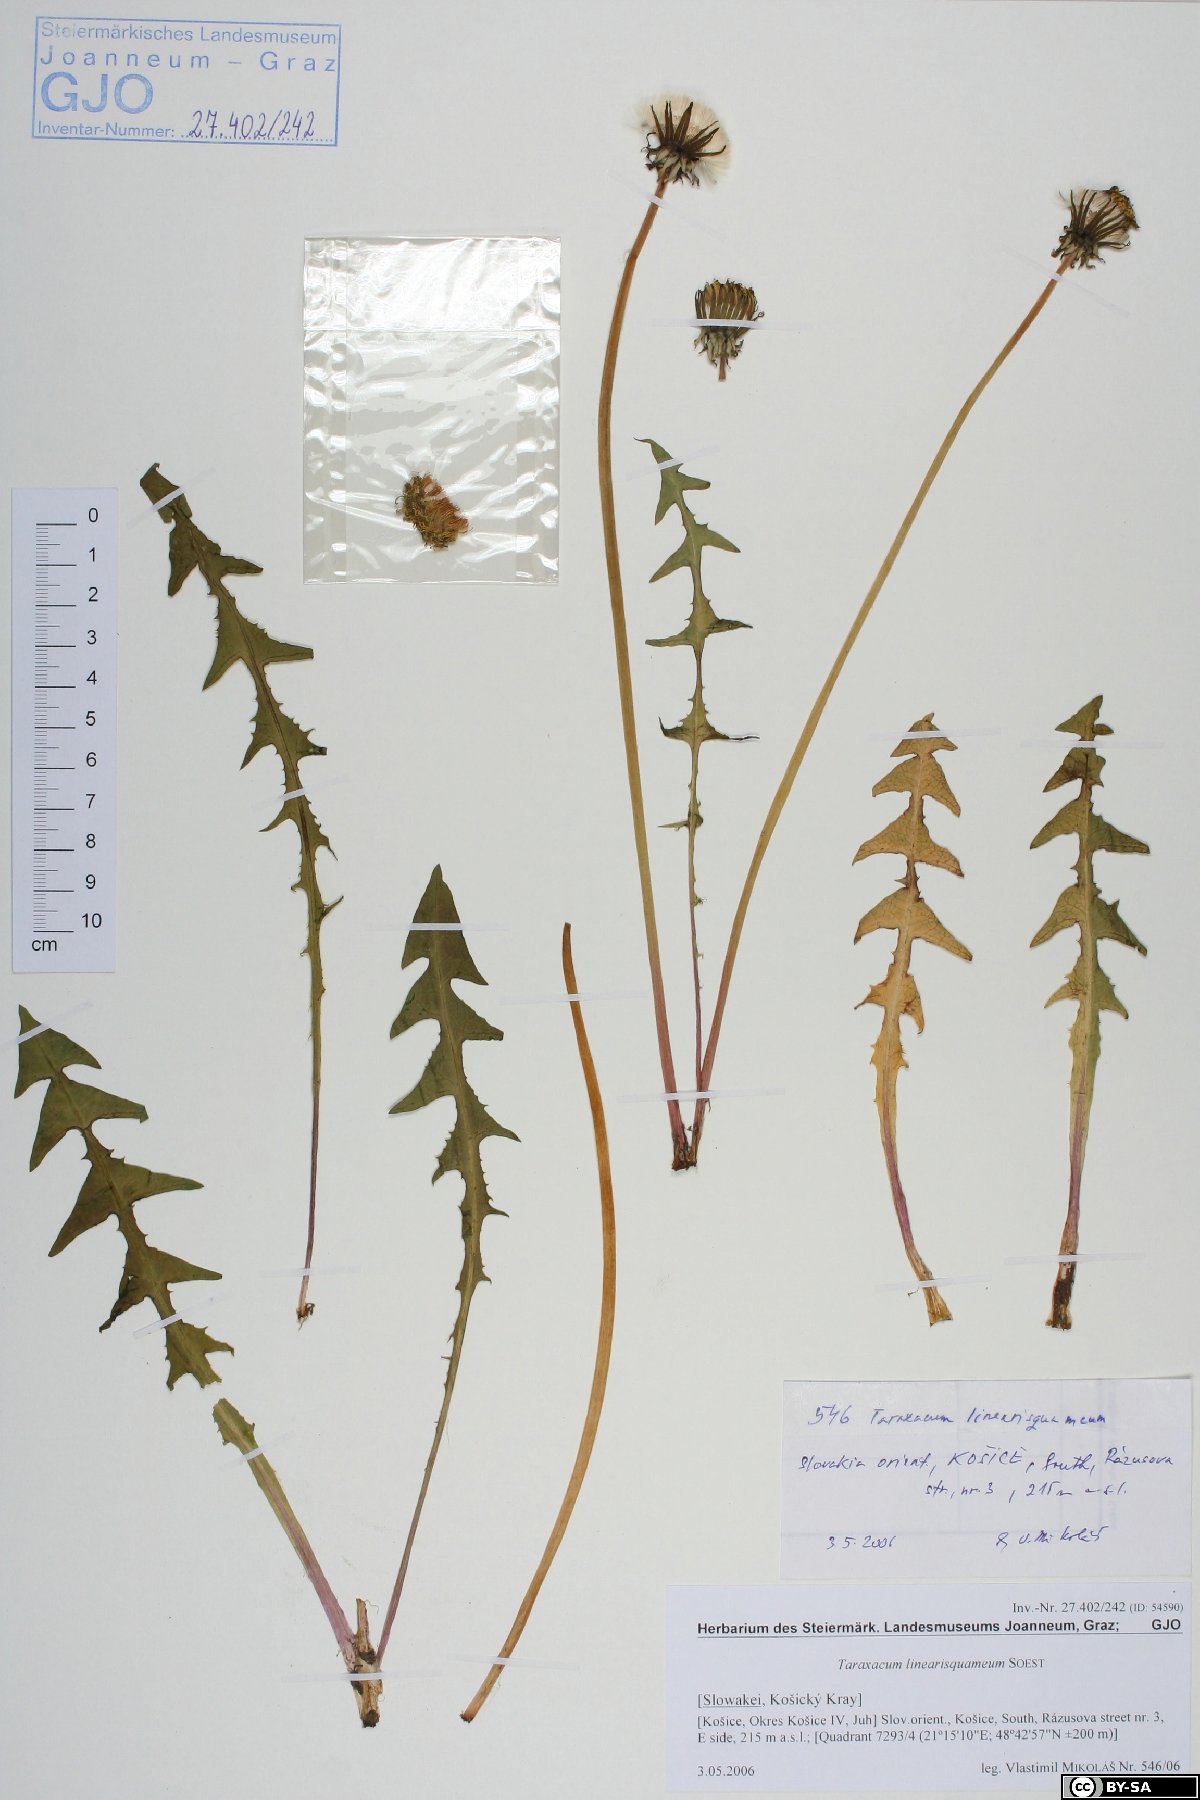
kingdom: Plantae
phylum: Tracheophyta
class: Magnoliopsida
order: Asterales
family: Asteraceae
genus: Taraxacum
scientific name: Taraxacum linearisquameum
